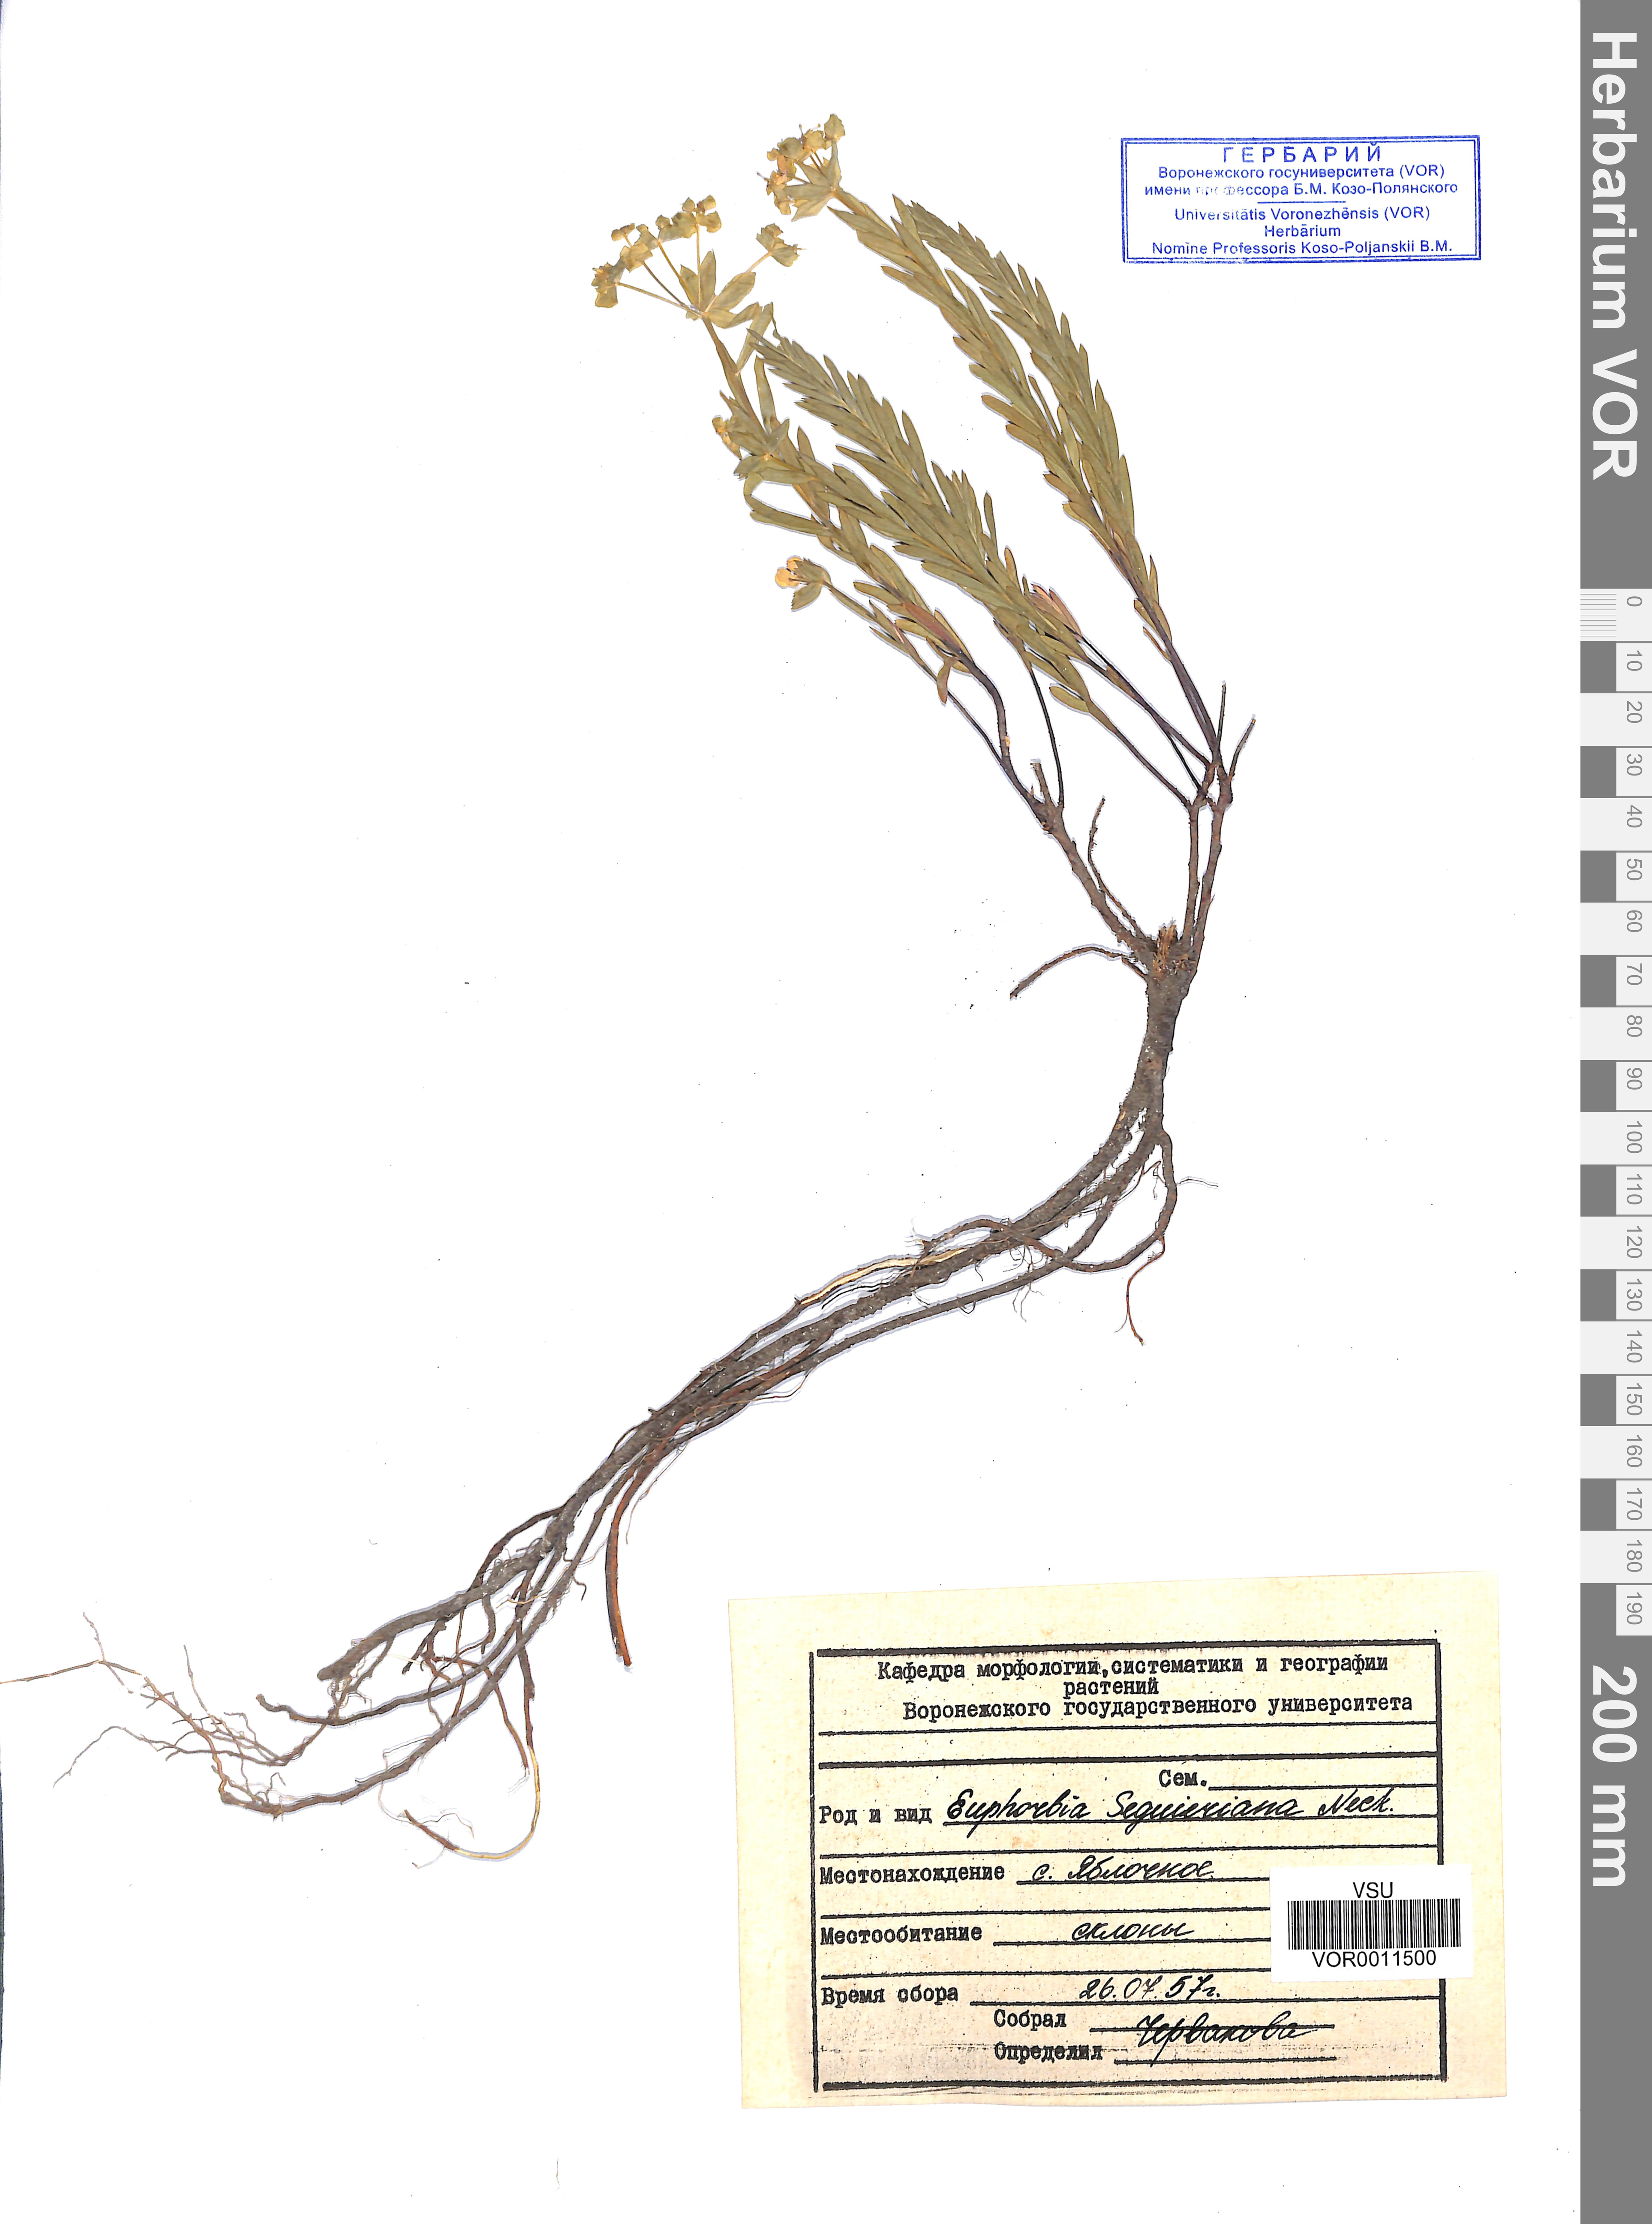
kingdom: Plantae
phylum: Tracheophyta
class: Magnoliopsida
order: Malpighiales
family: Euphorbiaceae
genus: Euphorbia
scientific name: Euphorbia seguieriana
